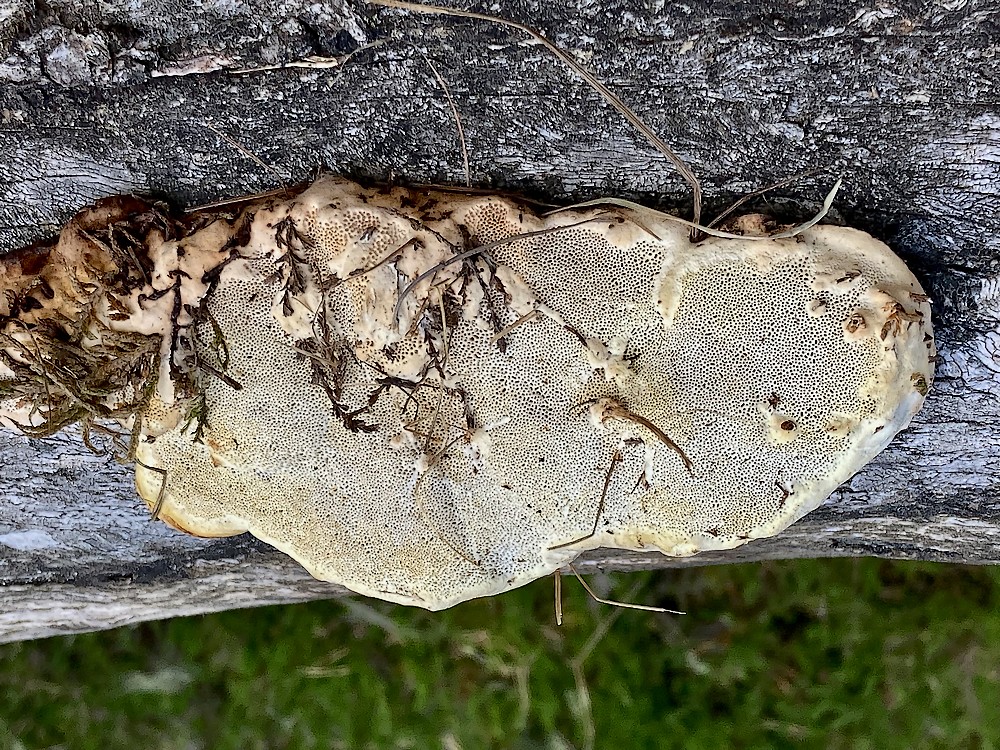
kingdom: Fungi
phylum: Basidiomycota
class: Agaricomycetes
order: Polyporales
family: Fomitopsidaceae
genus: Fomitopsis
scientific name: Fomitopsis pinicola
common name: randbæltet hovporesvamp
